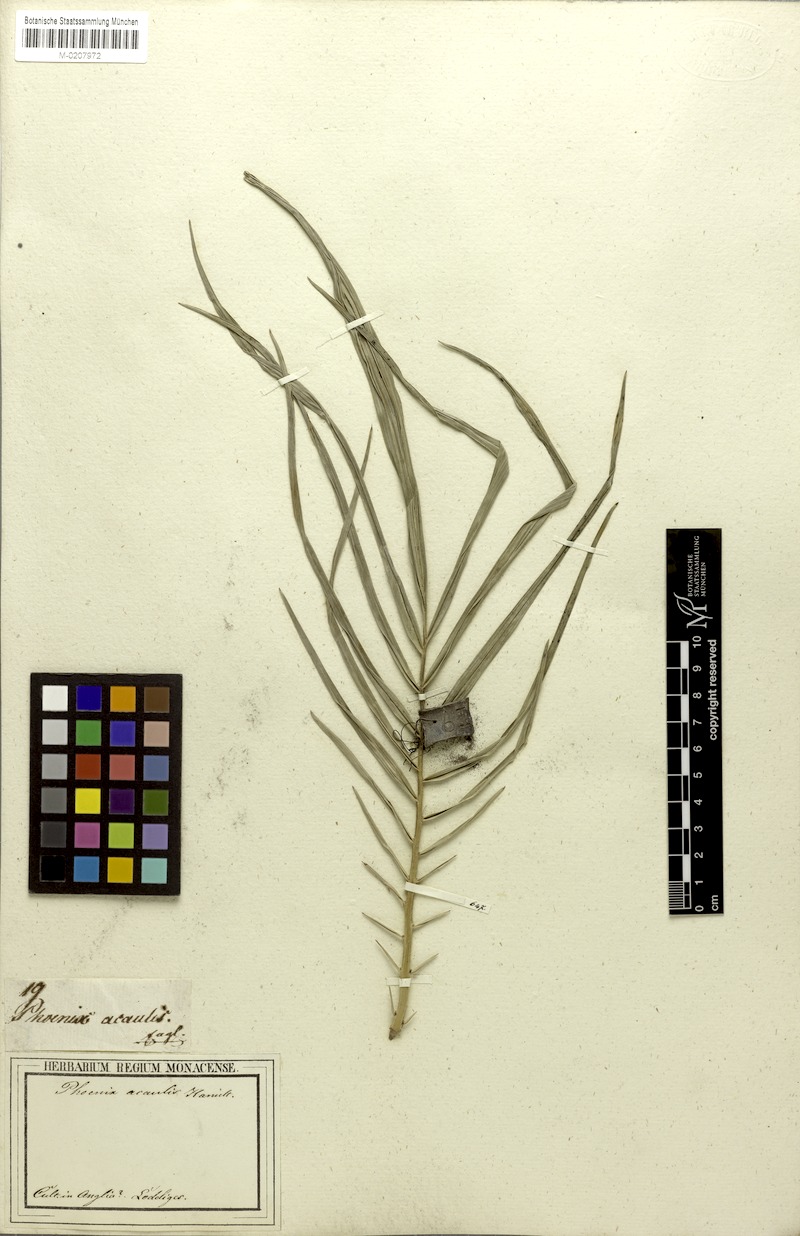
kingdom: Plantae
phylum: Tracheophyta
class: Liliopsida
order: Arecales
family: Arecaceae
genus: Phoenix
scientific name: Phoenix acaulis
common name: Stemless date palm
